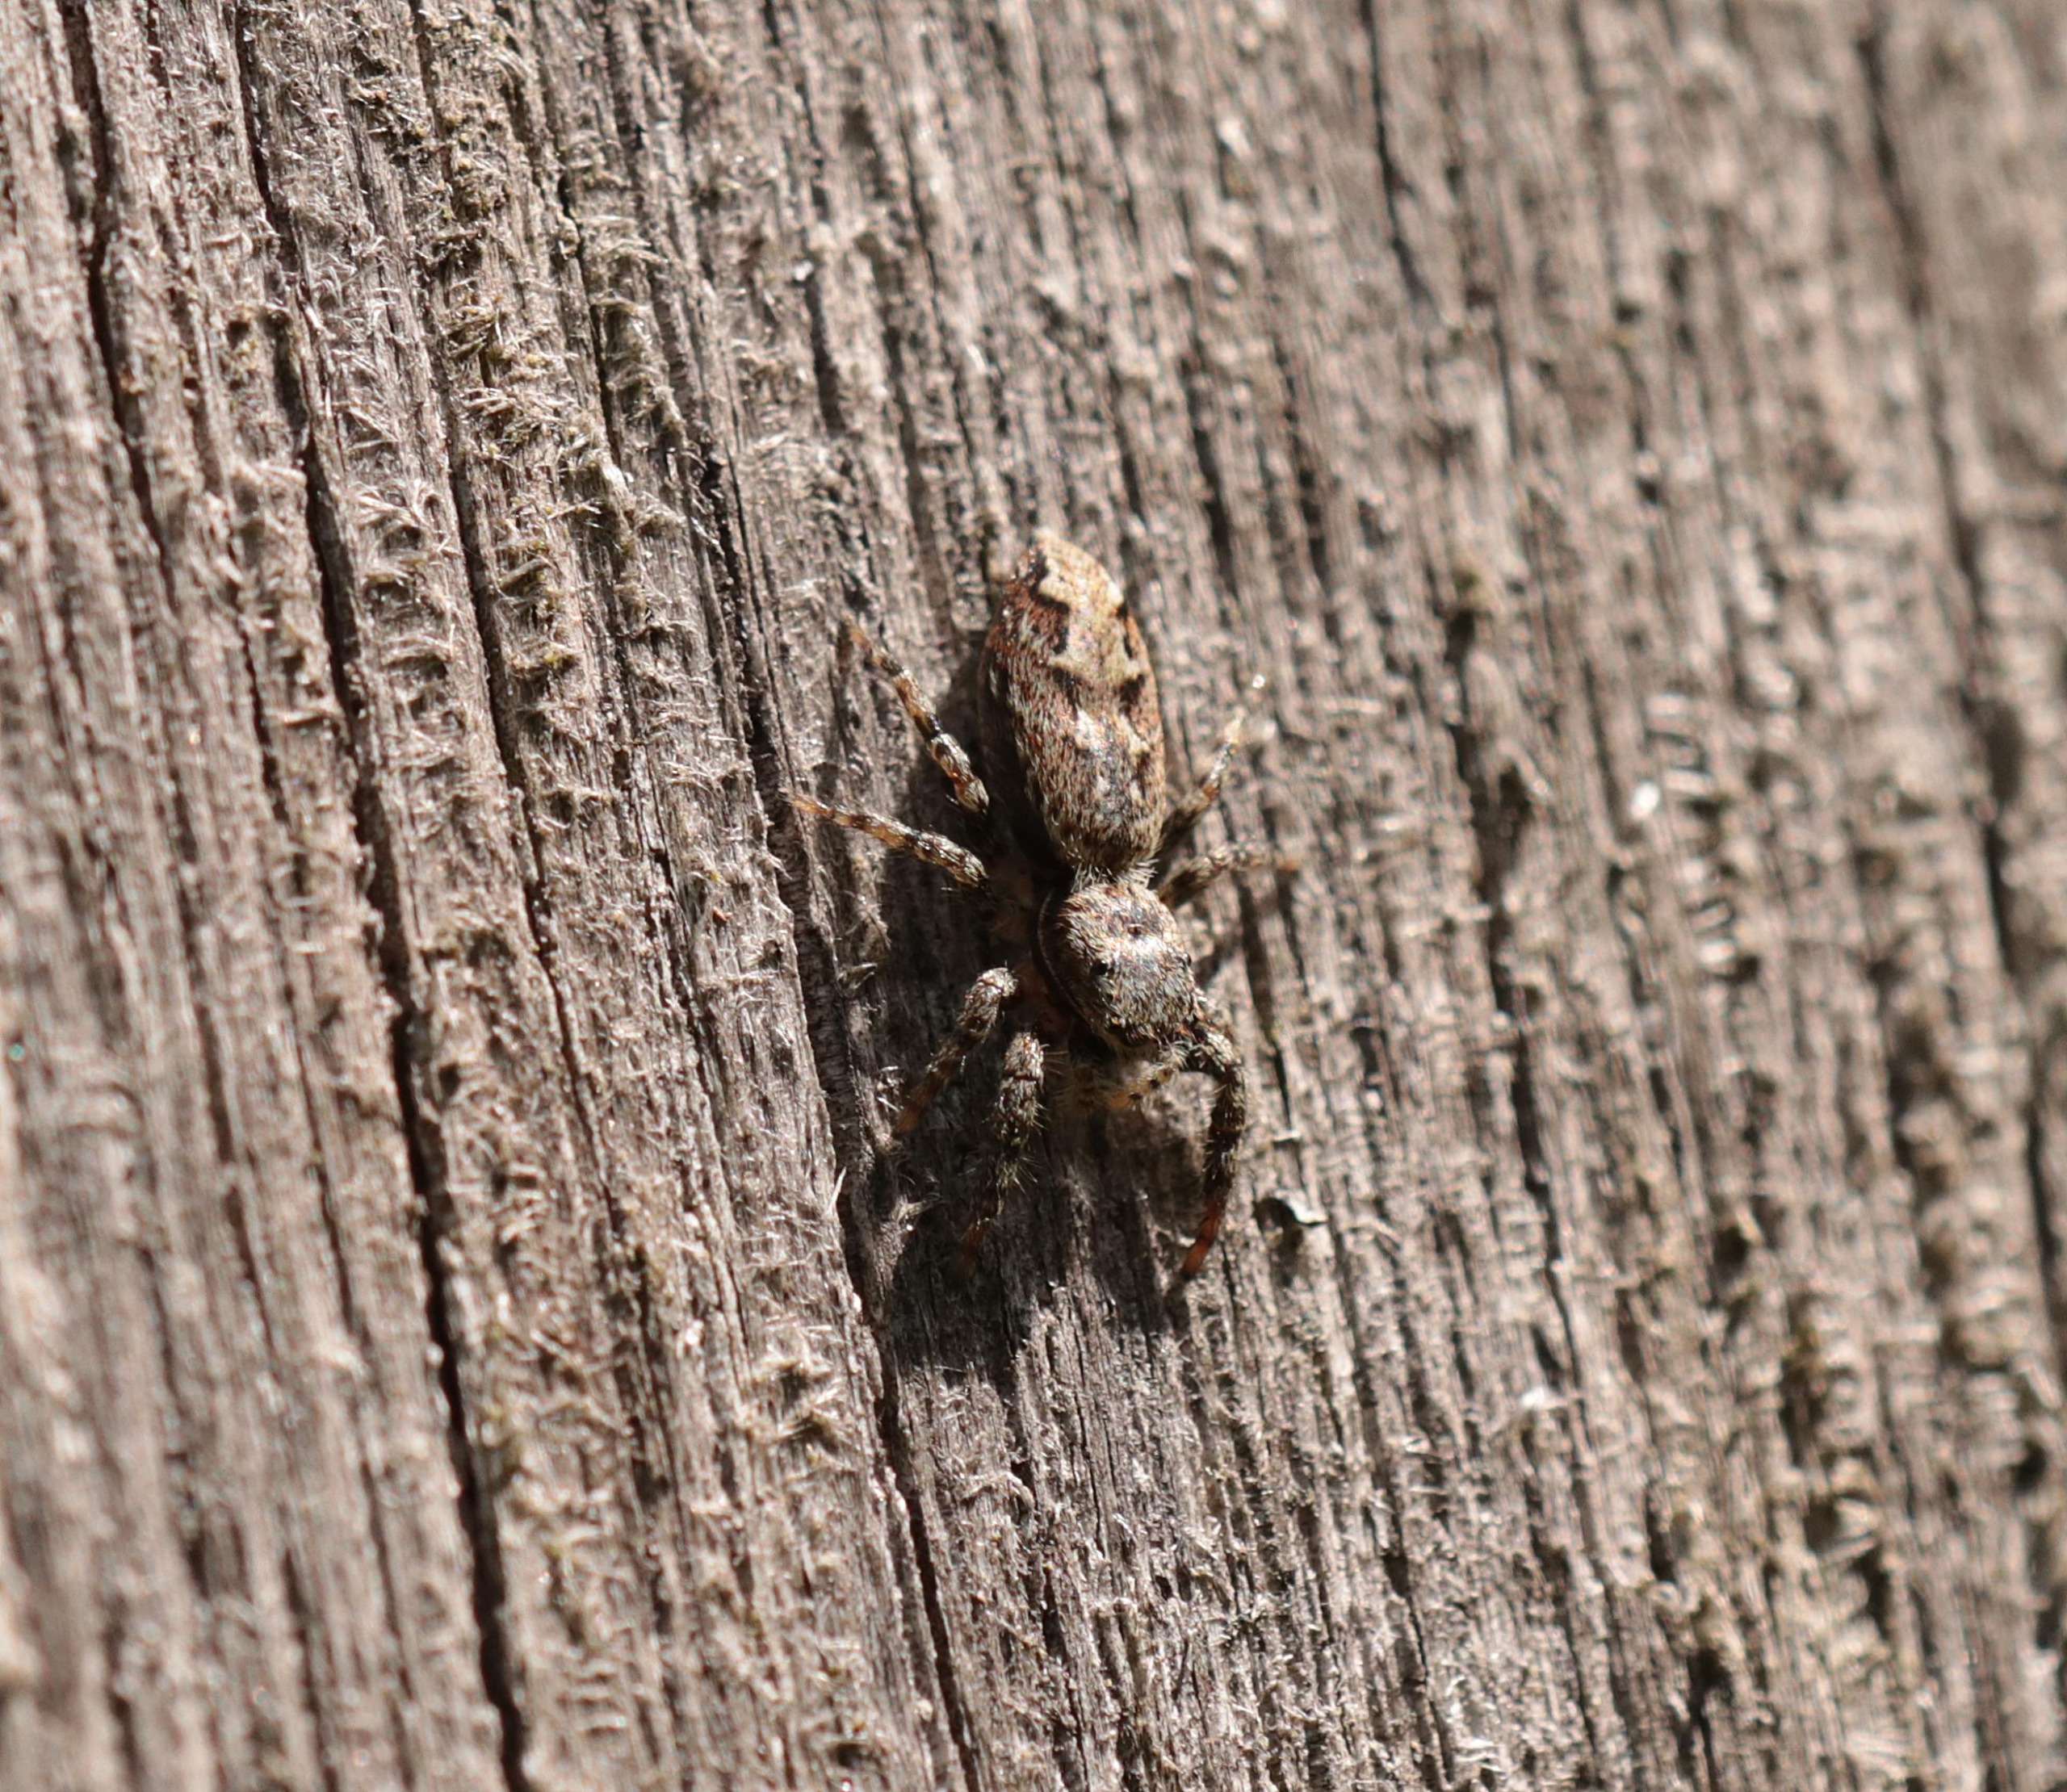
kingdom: Animalia
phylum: Arthropoda
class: Arachnida
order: Araneae
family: Salticidae
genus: Marpissa
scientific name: Marpissa muscosa
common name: Stor springedderkop
